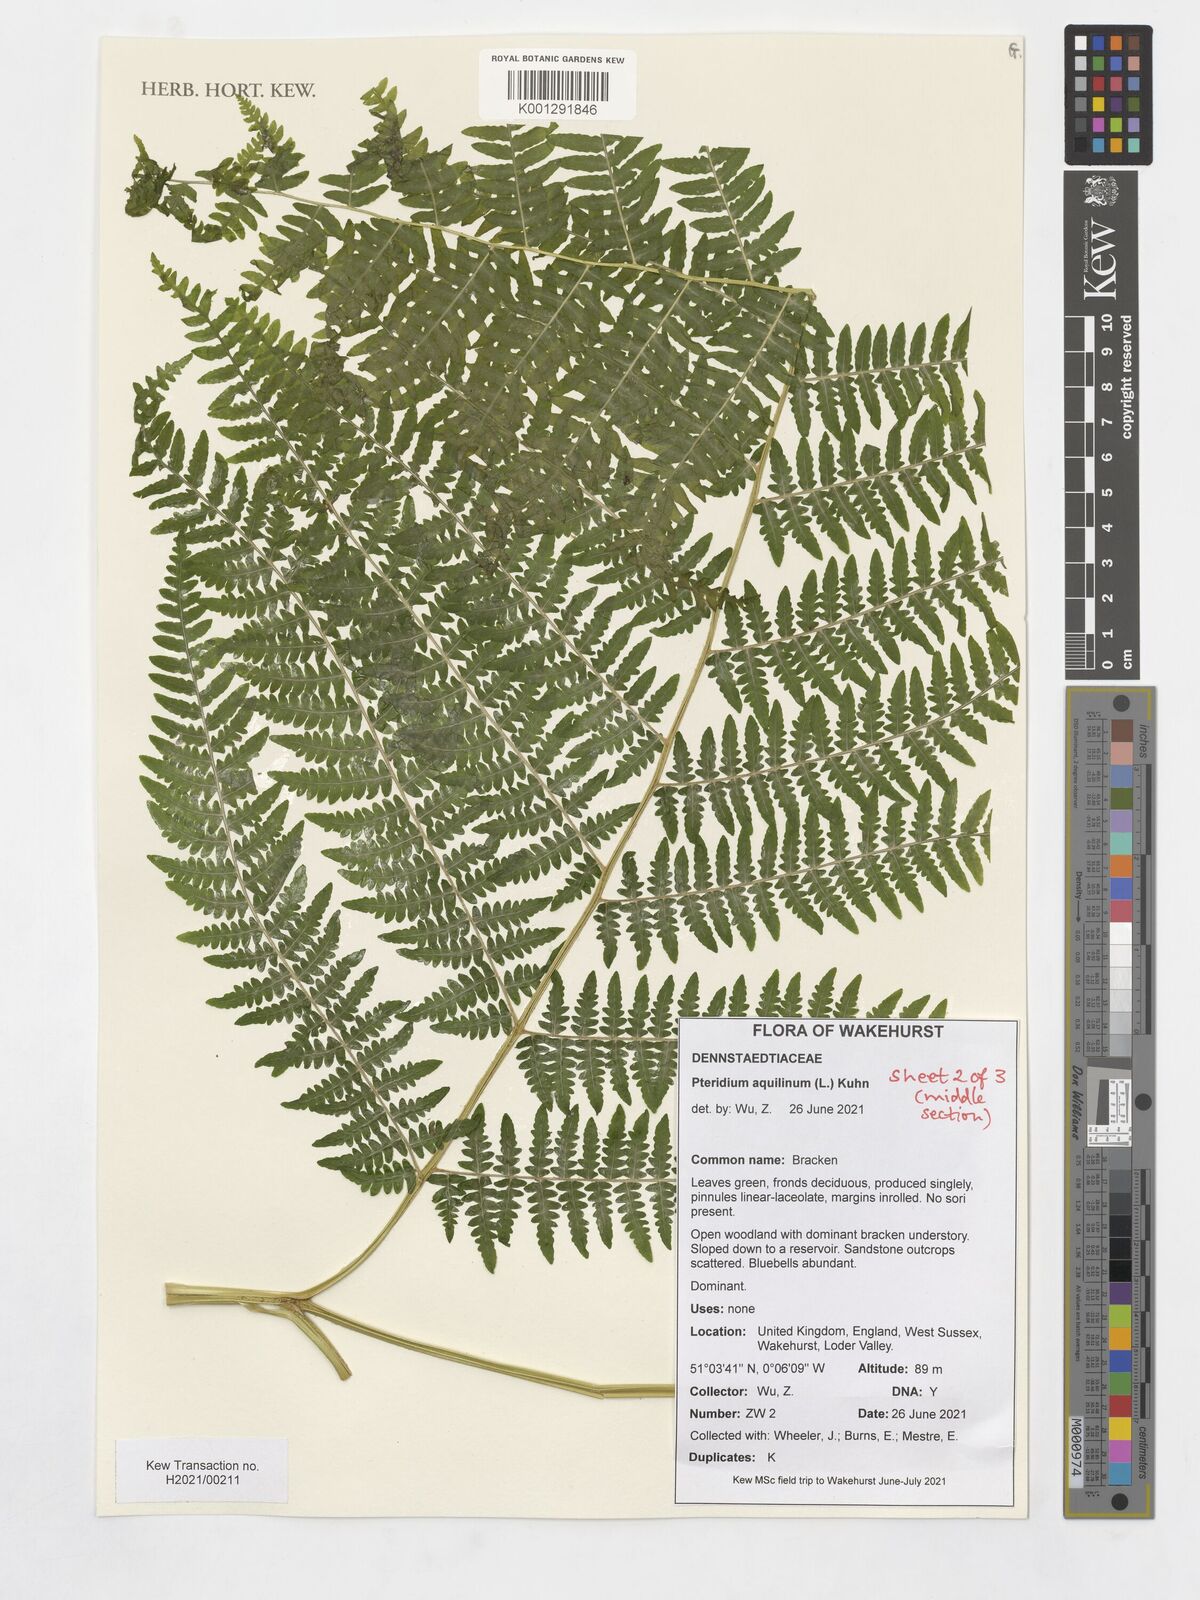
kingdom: Plantae
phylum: Tracheophyta
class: Polypodiopsida
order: Polypodiales
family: Dennstaedtiaceae
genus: Pteridium
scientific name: Pteridium aquilinum
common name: Bracken
